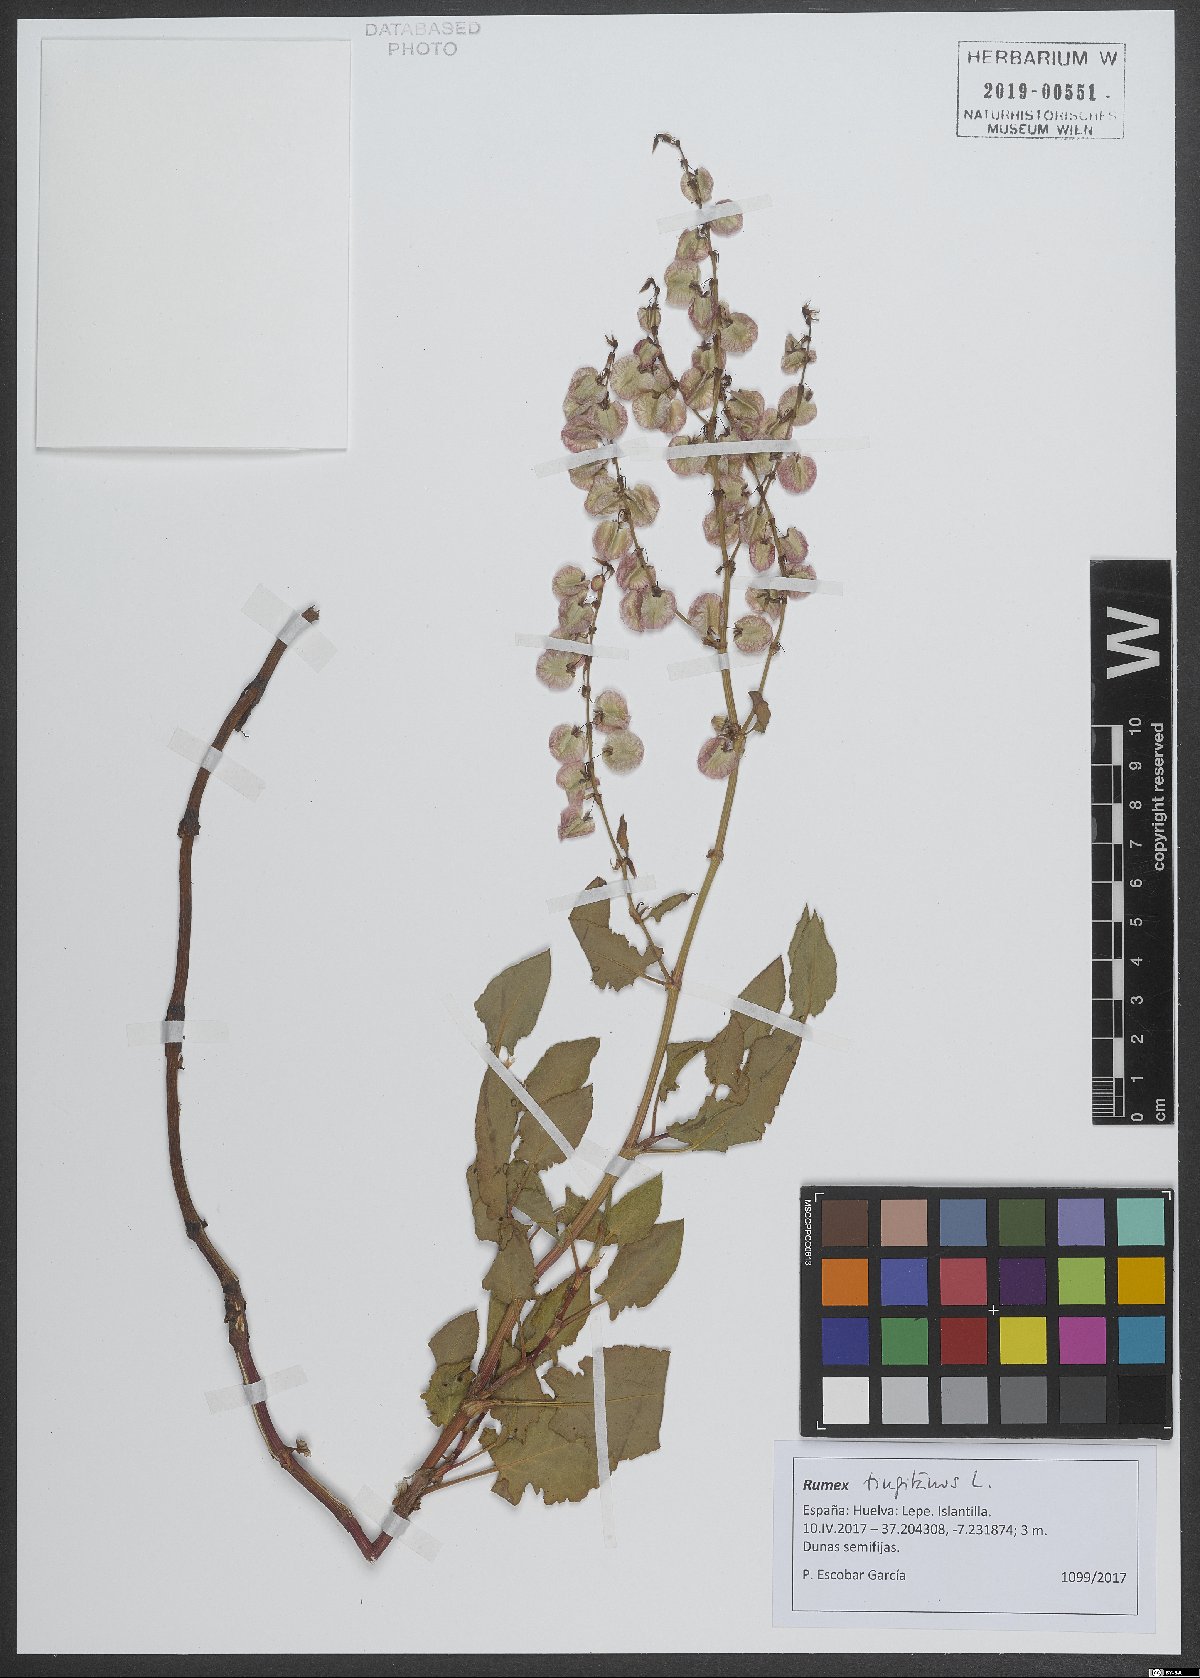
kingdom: Plantae
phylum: Tracheophyta
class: Magnoliopsida
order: Caryophyllales
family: Polygonaceae
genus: Rumex
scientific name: Rumex roseus
